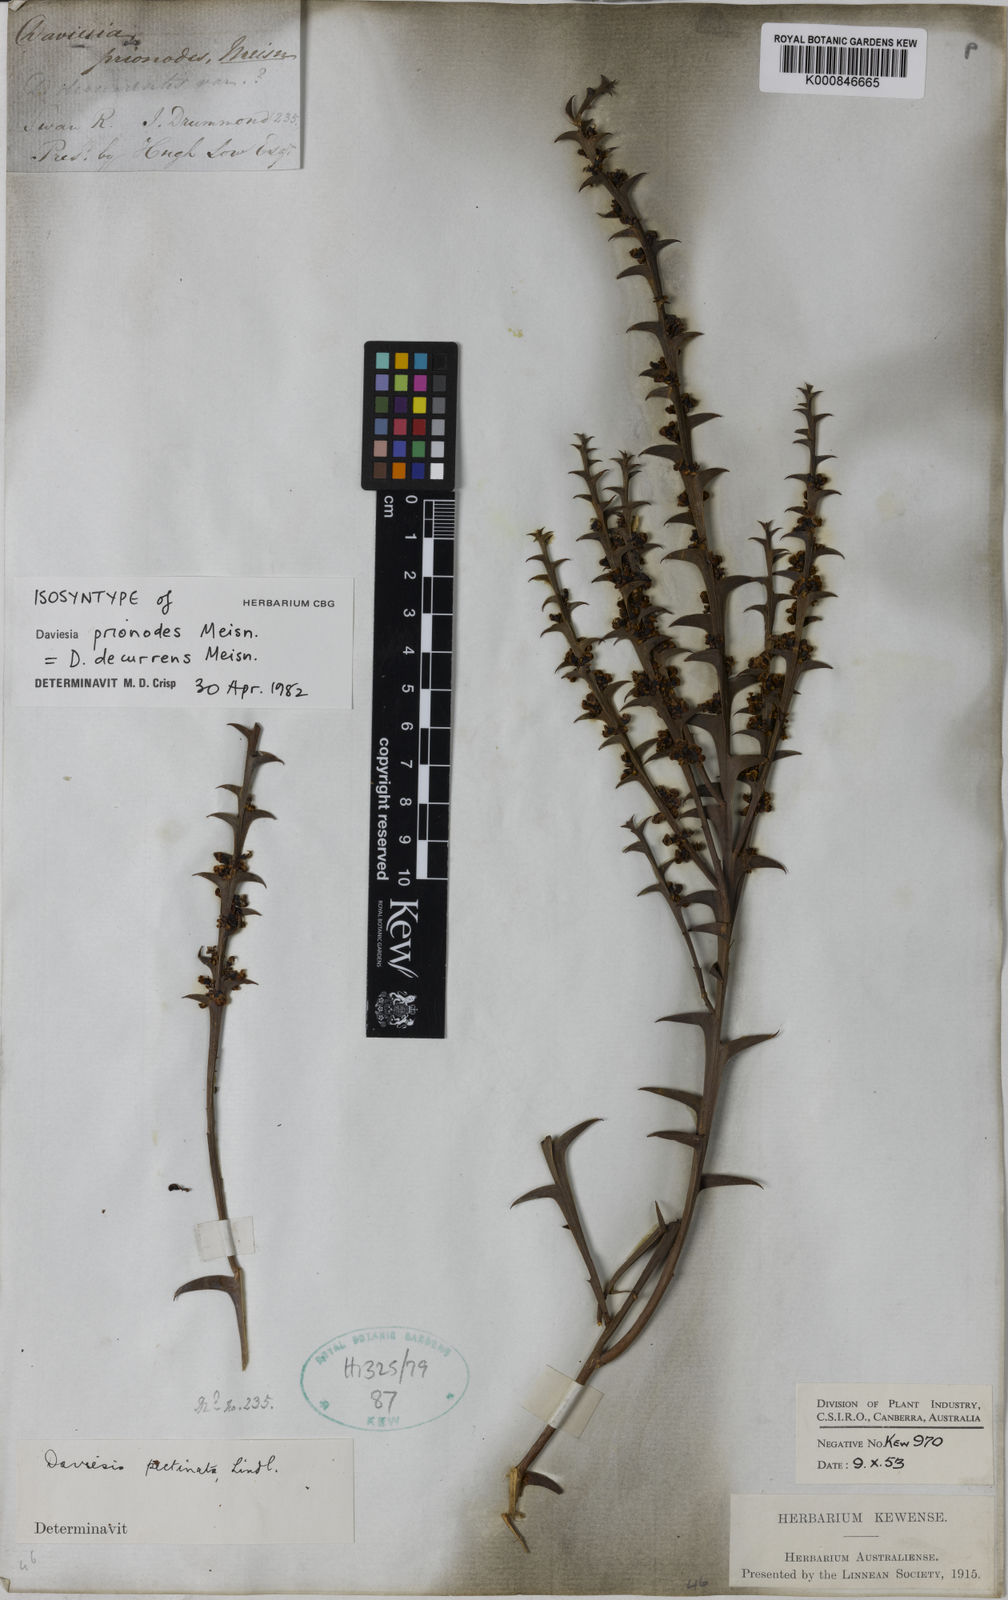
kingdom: Plantae
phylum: Tracheophyta
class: Magnoliopsida
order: Fabales
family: Fabaceae
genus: Daviesia
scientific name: Daviesia decurrens
